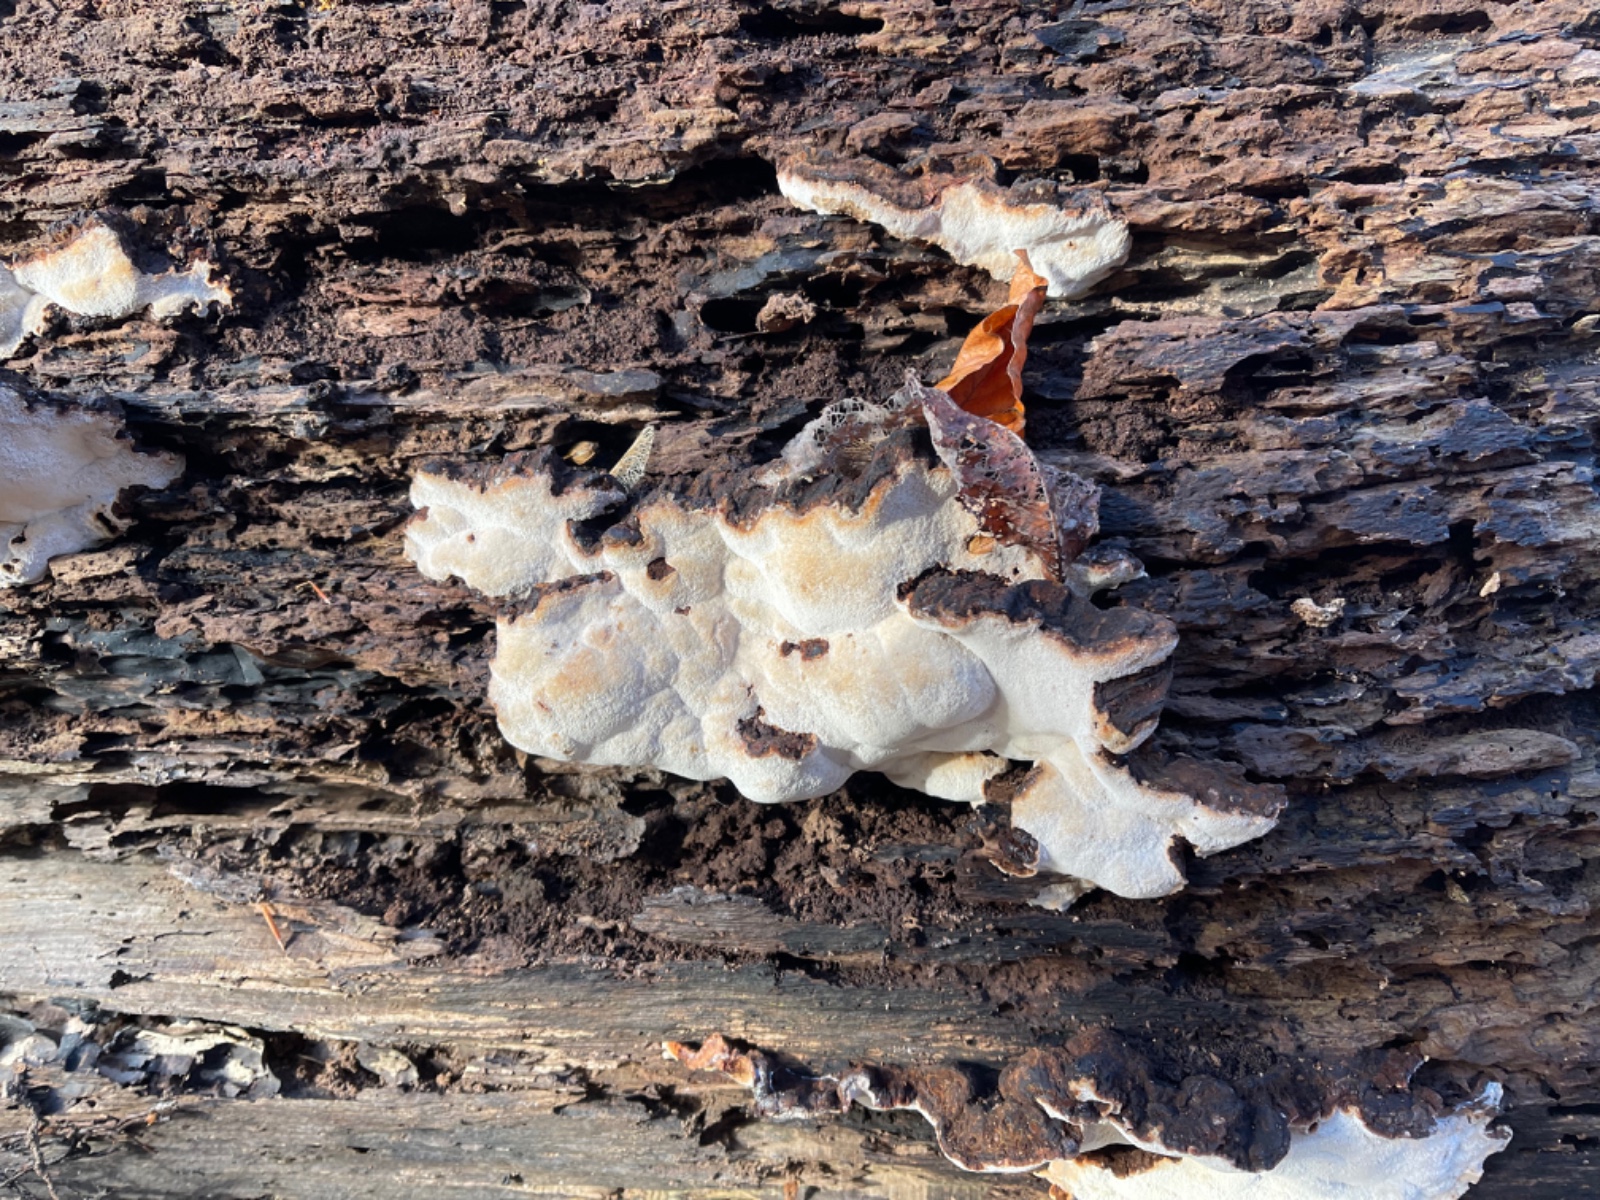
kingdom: Fungi
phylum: Basidiomycota
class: Agaricomycetes
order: Polyporales
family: Ischnodermataceae
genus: Ischnoderma
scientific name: Ischnoderma resinosum
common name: løv-tjæreporesvamp
